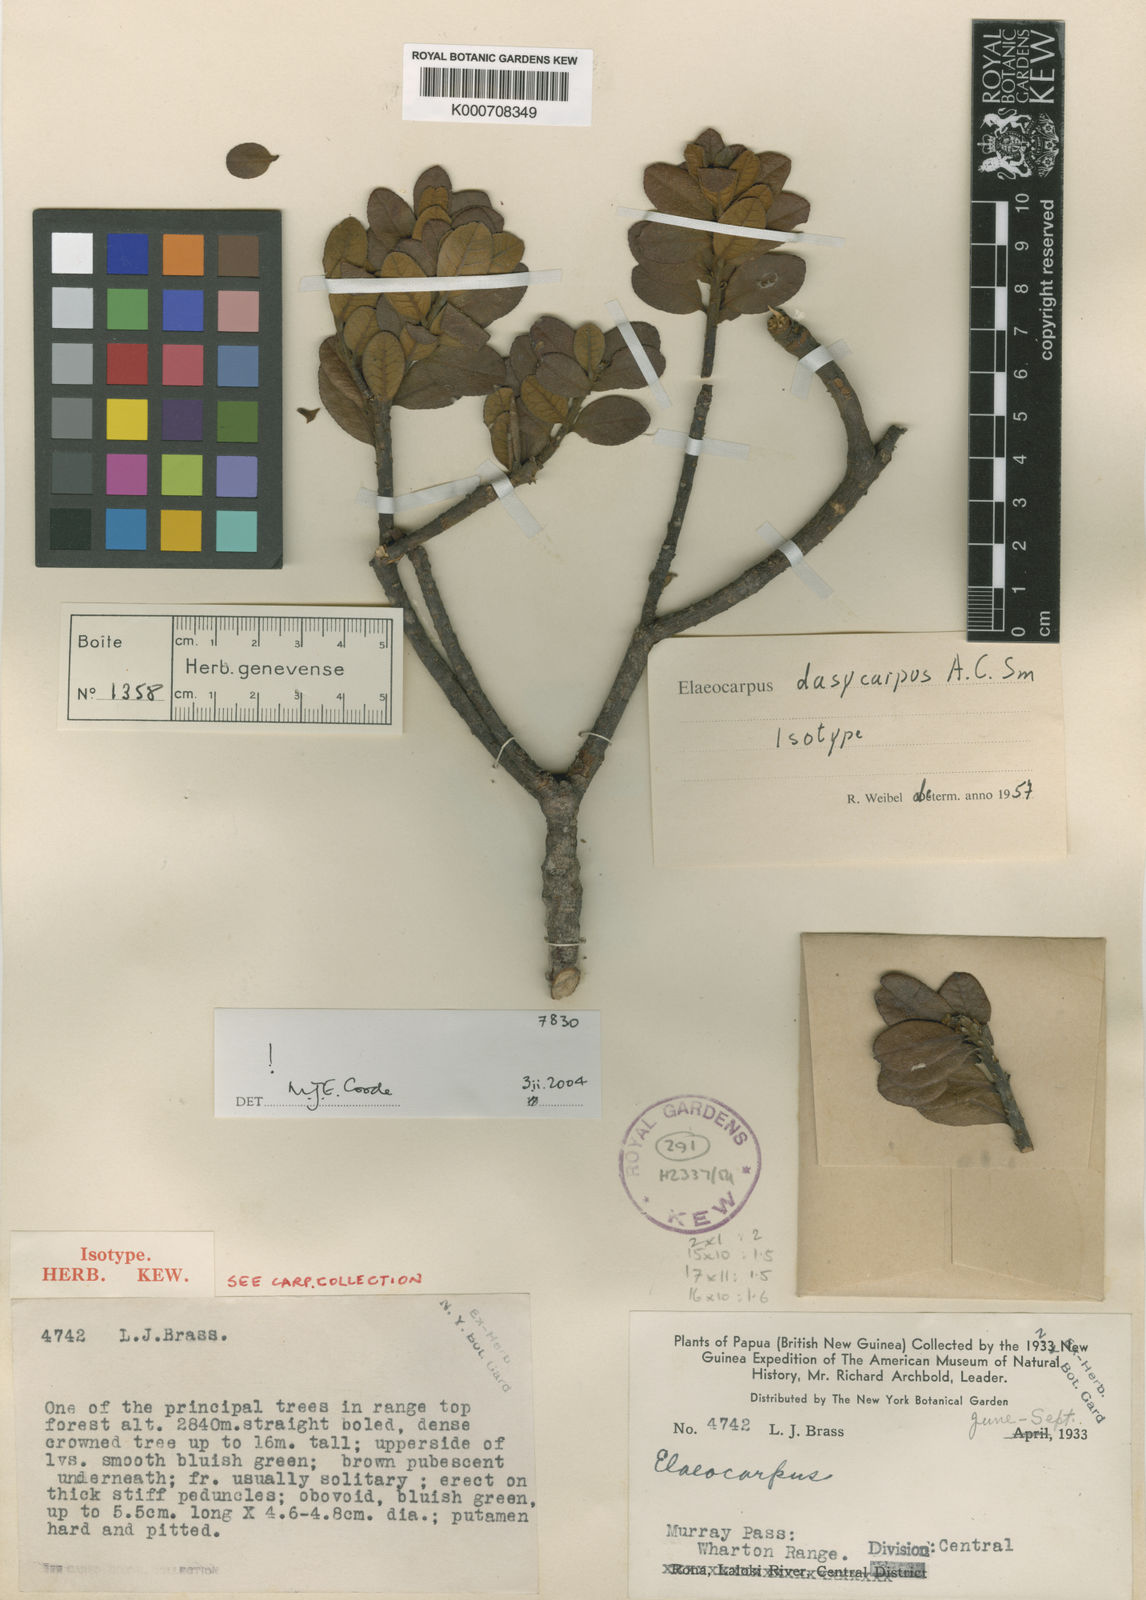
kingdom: Plantae
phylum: Tracheophyta
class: Magnoliopsida
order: Oxalidales
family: Elaeocarpaceae
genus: Elaeocarpus
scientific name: Elaeocarpus dasycarpus
